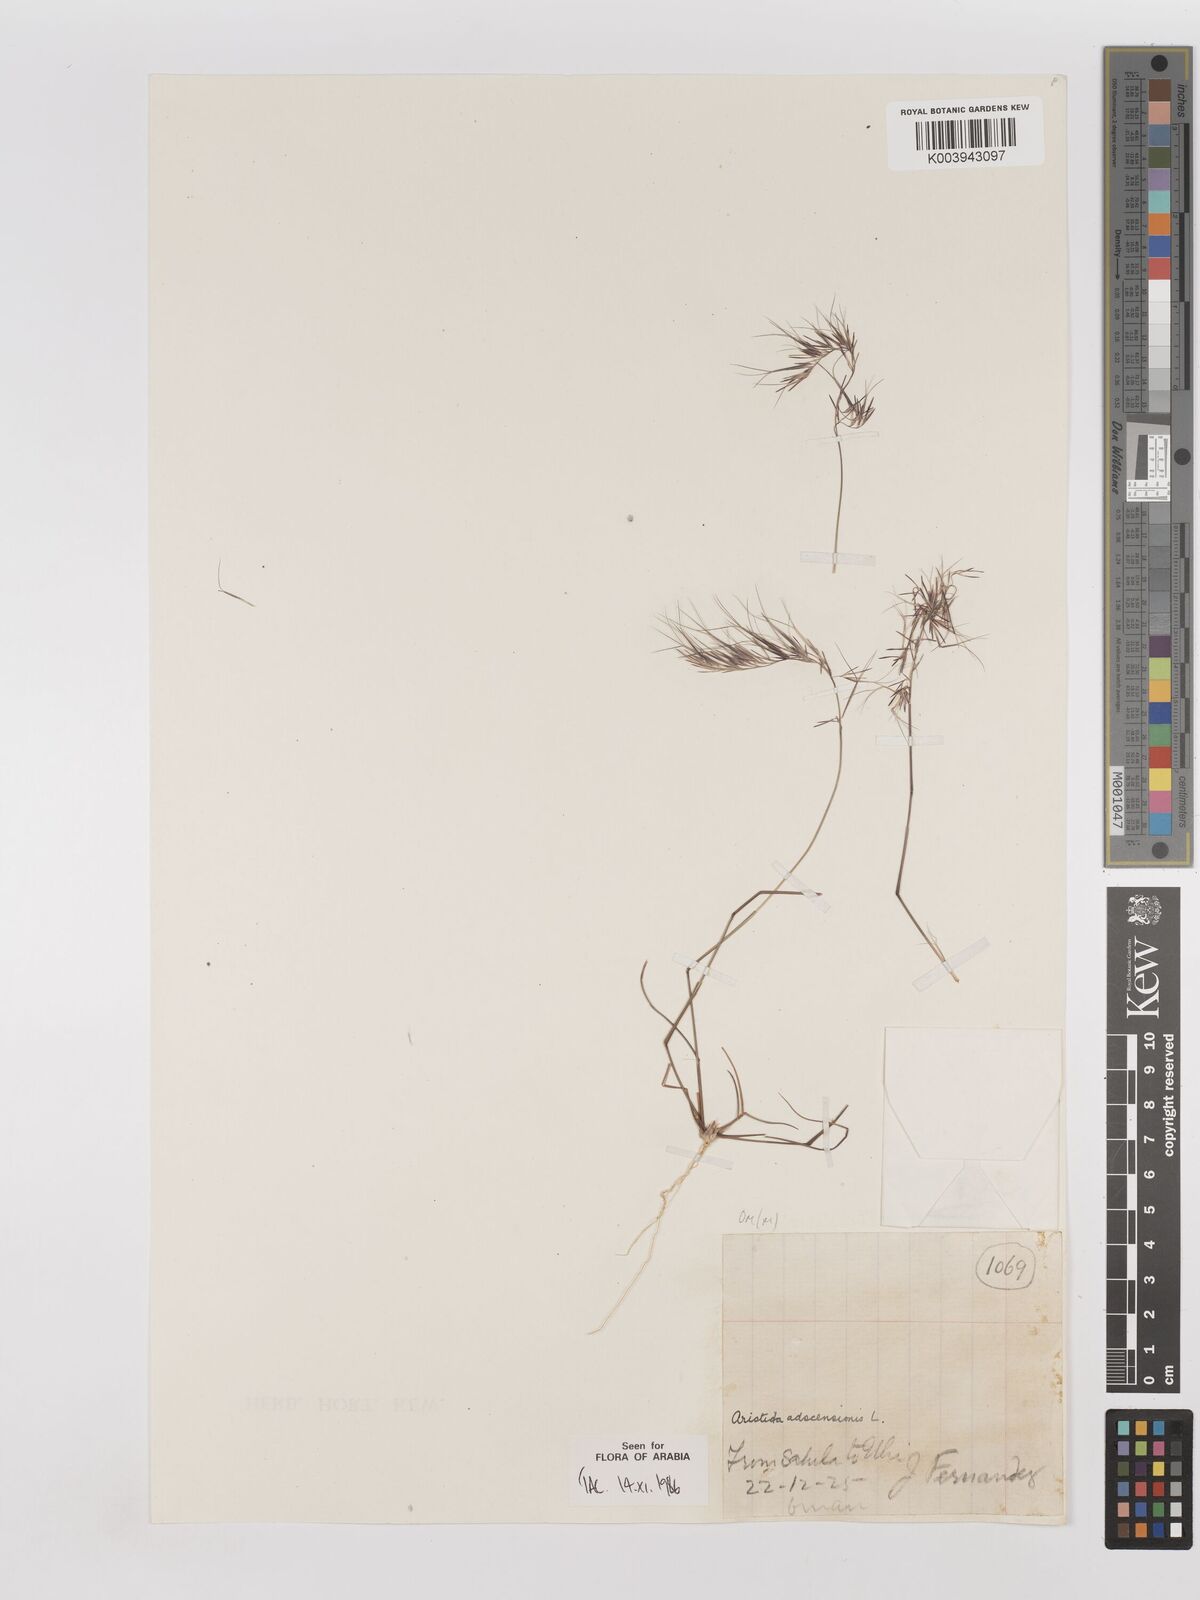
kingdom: Plantae
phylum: Tracheophyta
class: Liliopsida
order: Poales
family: Poaceae
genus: Aristida
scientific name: Aristida adscensionis
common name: Sixweeks threeawn
